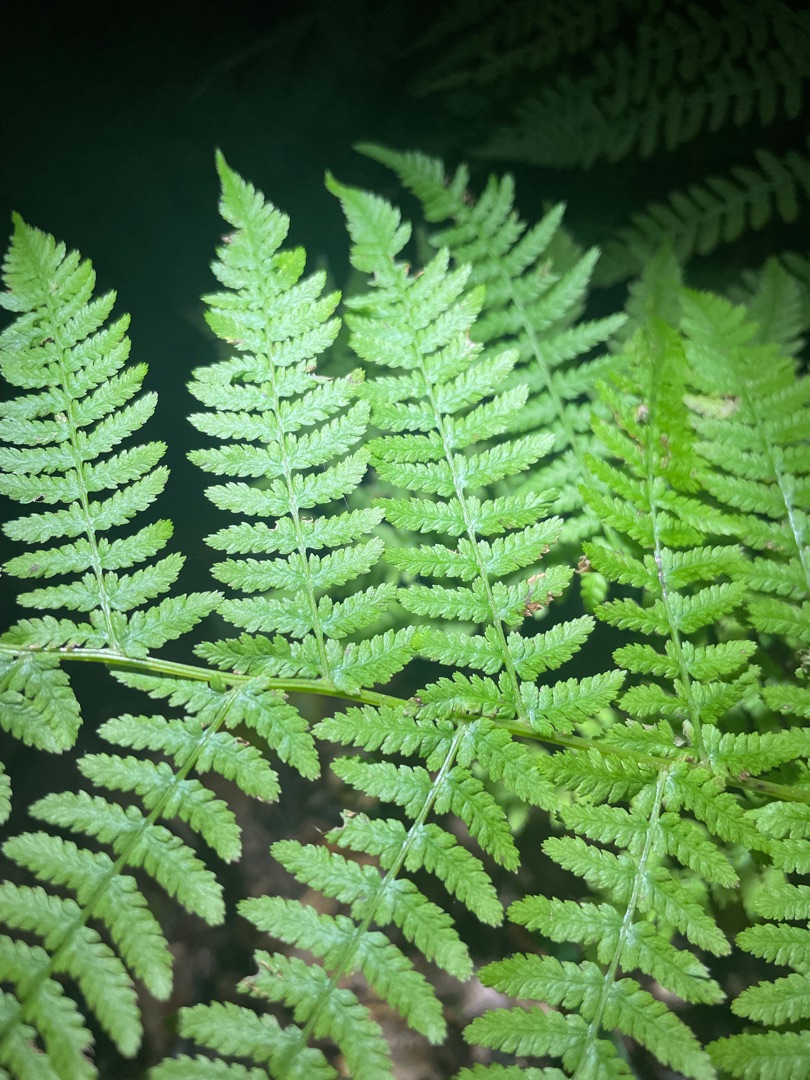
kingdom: Plantae
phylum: Tracheophyta
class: Polypodiopsida
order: Polypodiales
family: Athyriaceae
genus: Athyrium
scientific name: Athyrium filix-femina
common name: Fjerbregne
